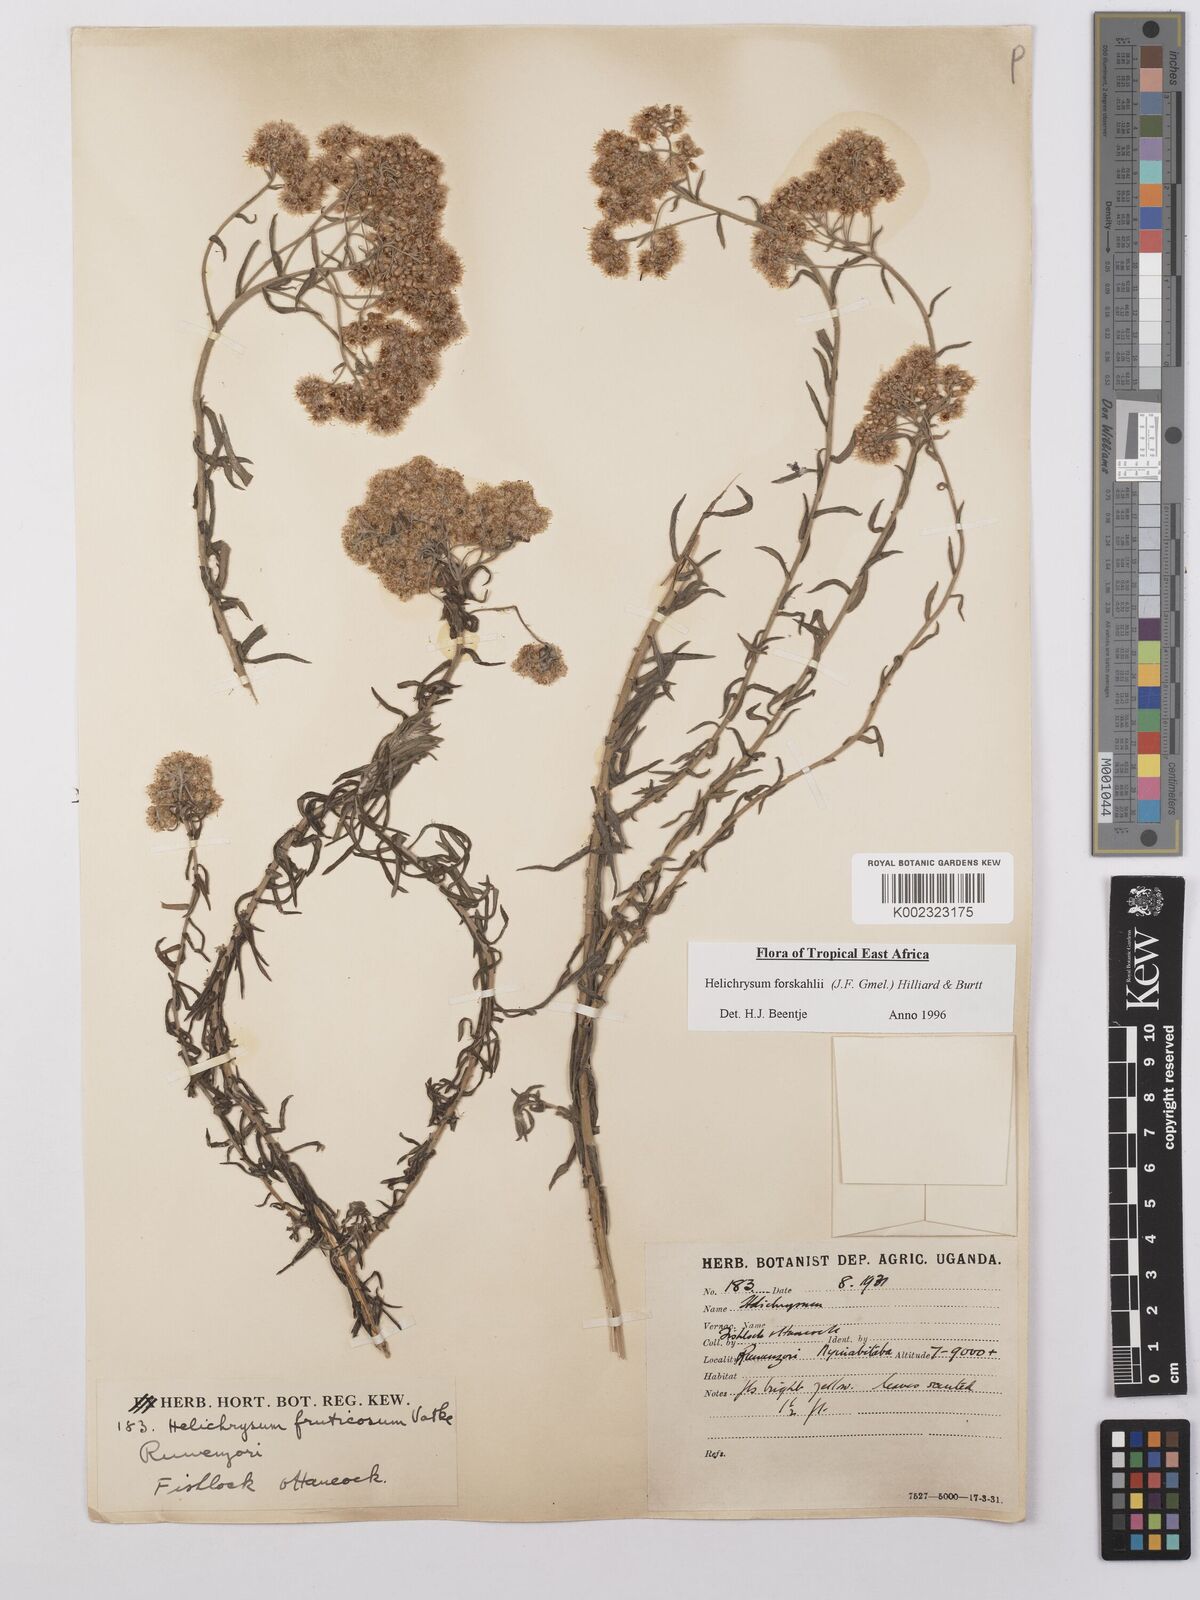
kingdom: Plantae
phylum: Tracheophyta
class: Magnoliopsida
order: Asterales
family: Asteraceae
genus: Helichrysum
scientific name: Helichrysum forskahlii
